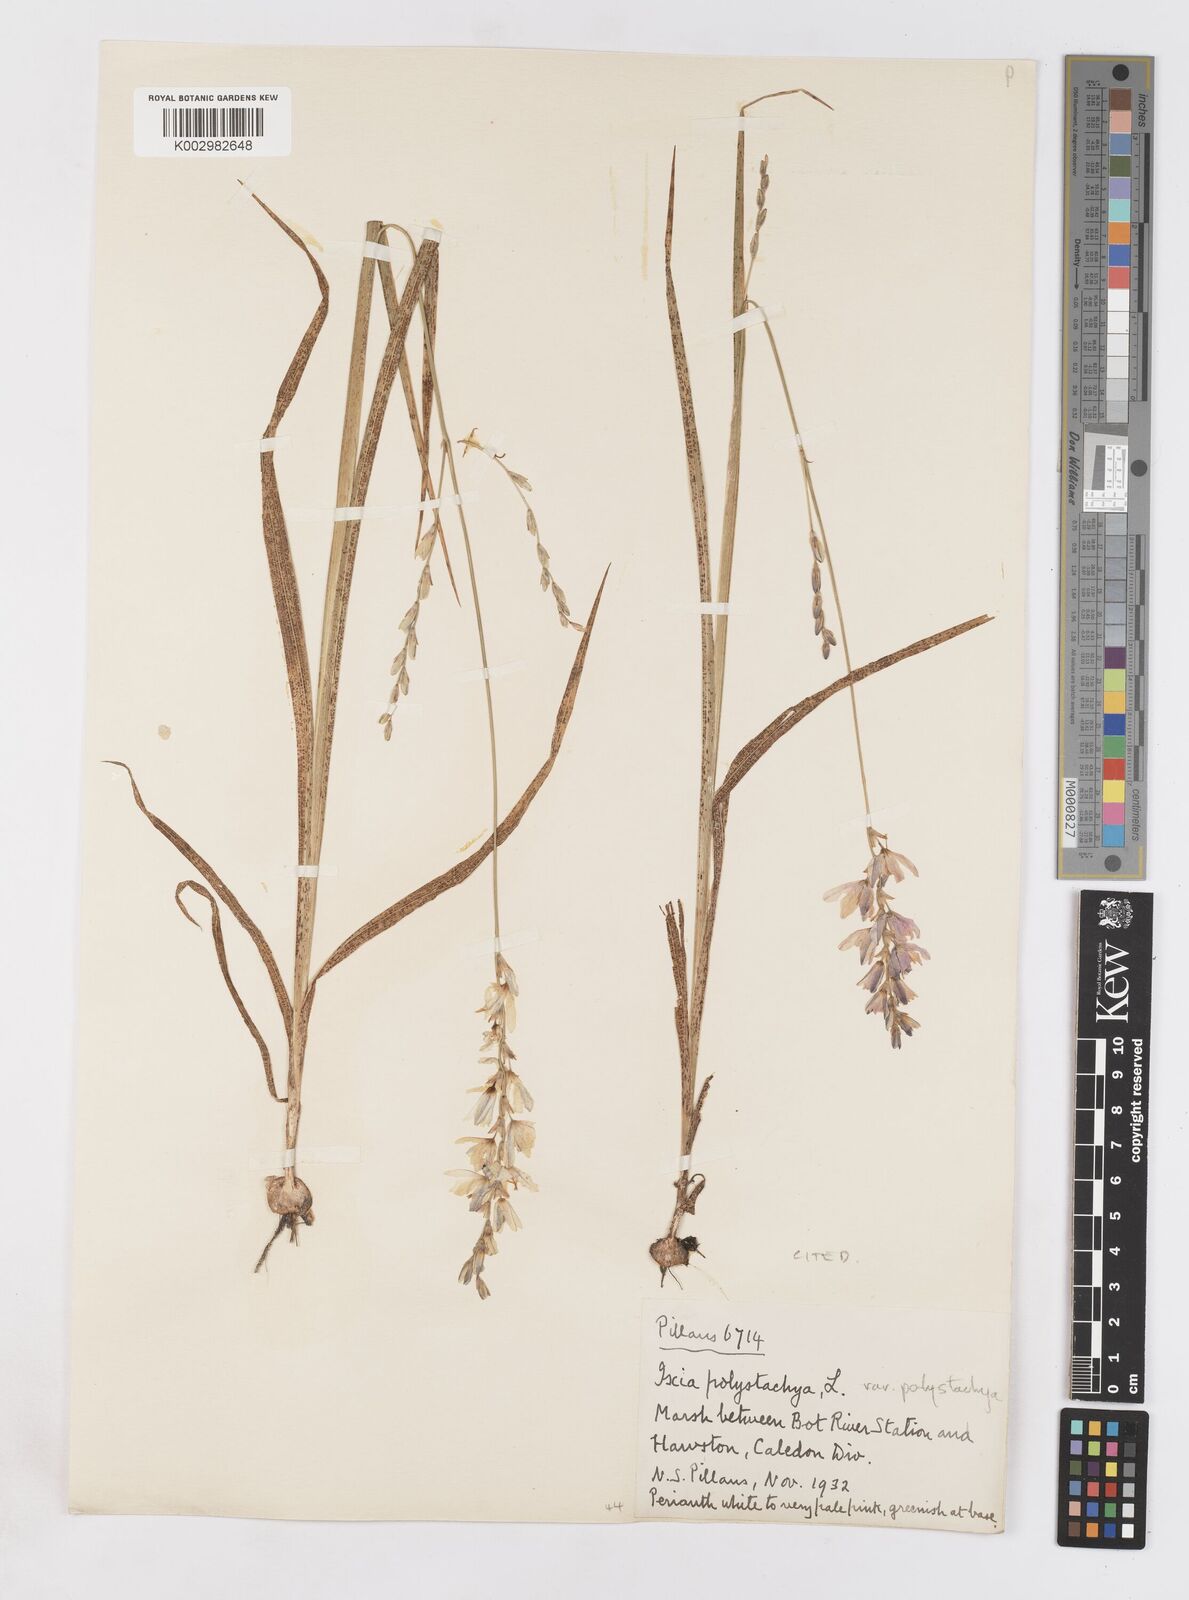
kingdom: Plantae
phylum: Tracheophyta
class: Liliopsida
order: Asparagales
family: Iridaceae
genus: Ixia
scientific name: Ixia polystachya
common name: White-and-yellow-flower cornlily
